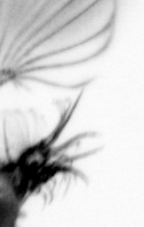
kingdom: Animalia
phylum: Chordata
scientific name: Chordata
